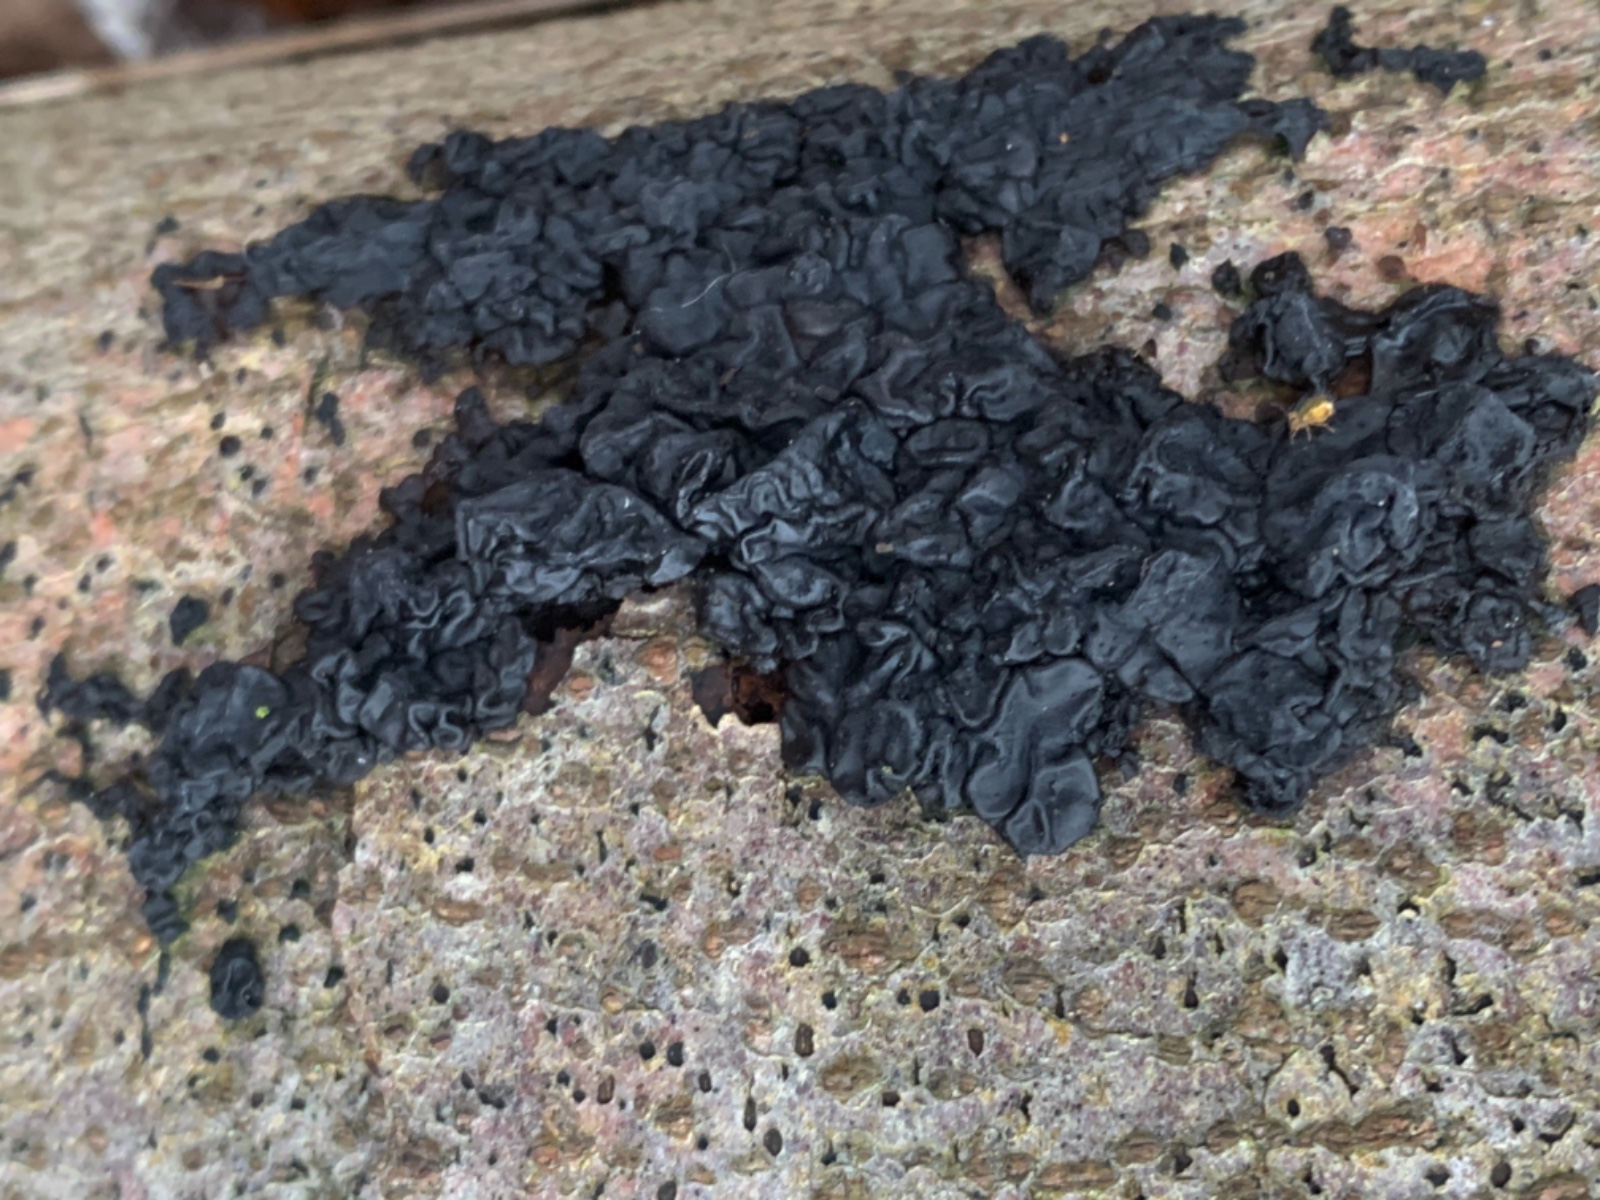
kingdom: Fungi
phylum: Basidiomycota
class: Agaricomycetes
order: Auriculariales
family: Auriculariaceae
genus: Exidia
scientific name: Exidia nigricans
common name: almindelig bævretop
